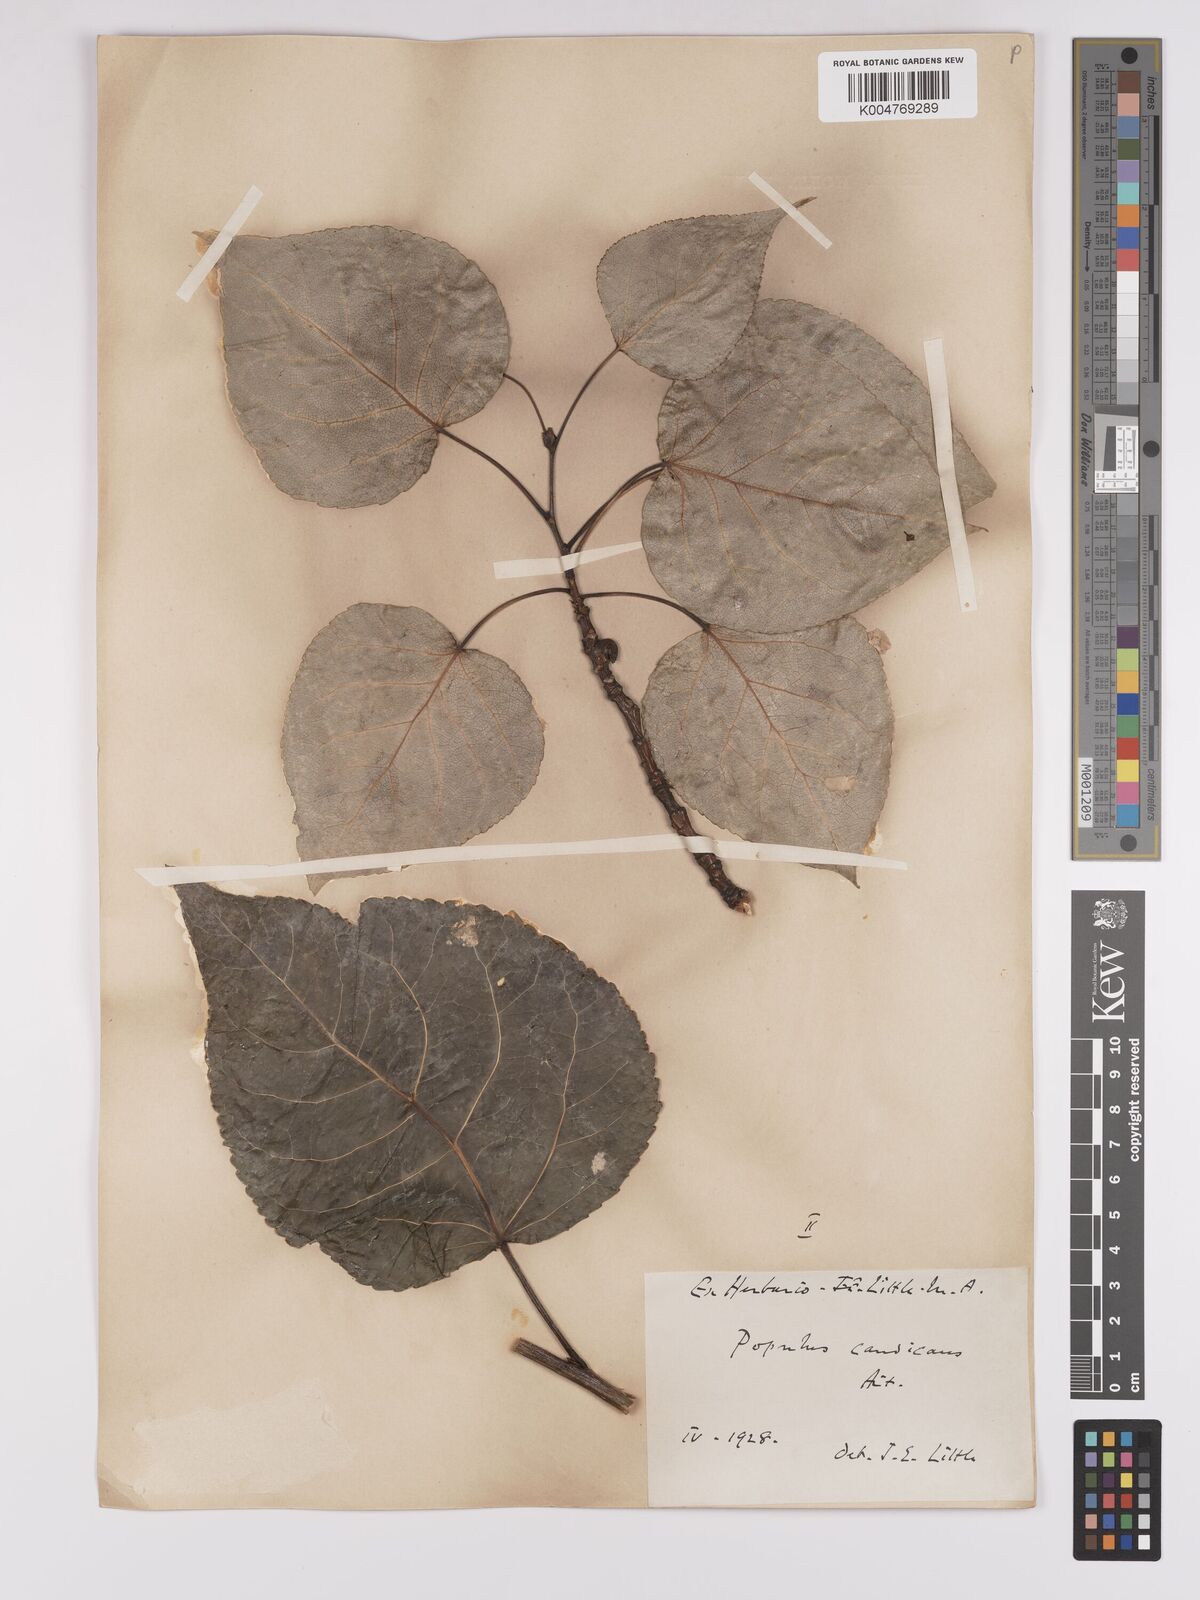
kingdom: Plantae
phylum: Tracheophyta
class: Magnoliopsida
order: Malpighiales
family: Salicaceae
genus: Populus
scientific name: Populus balsamifera
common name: Balsam poplar
